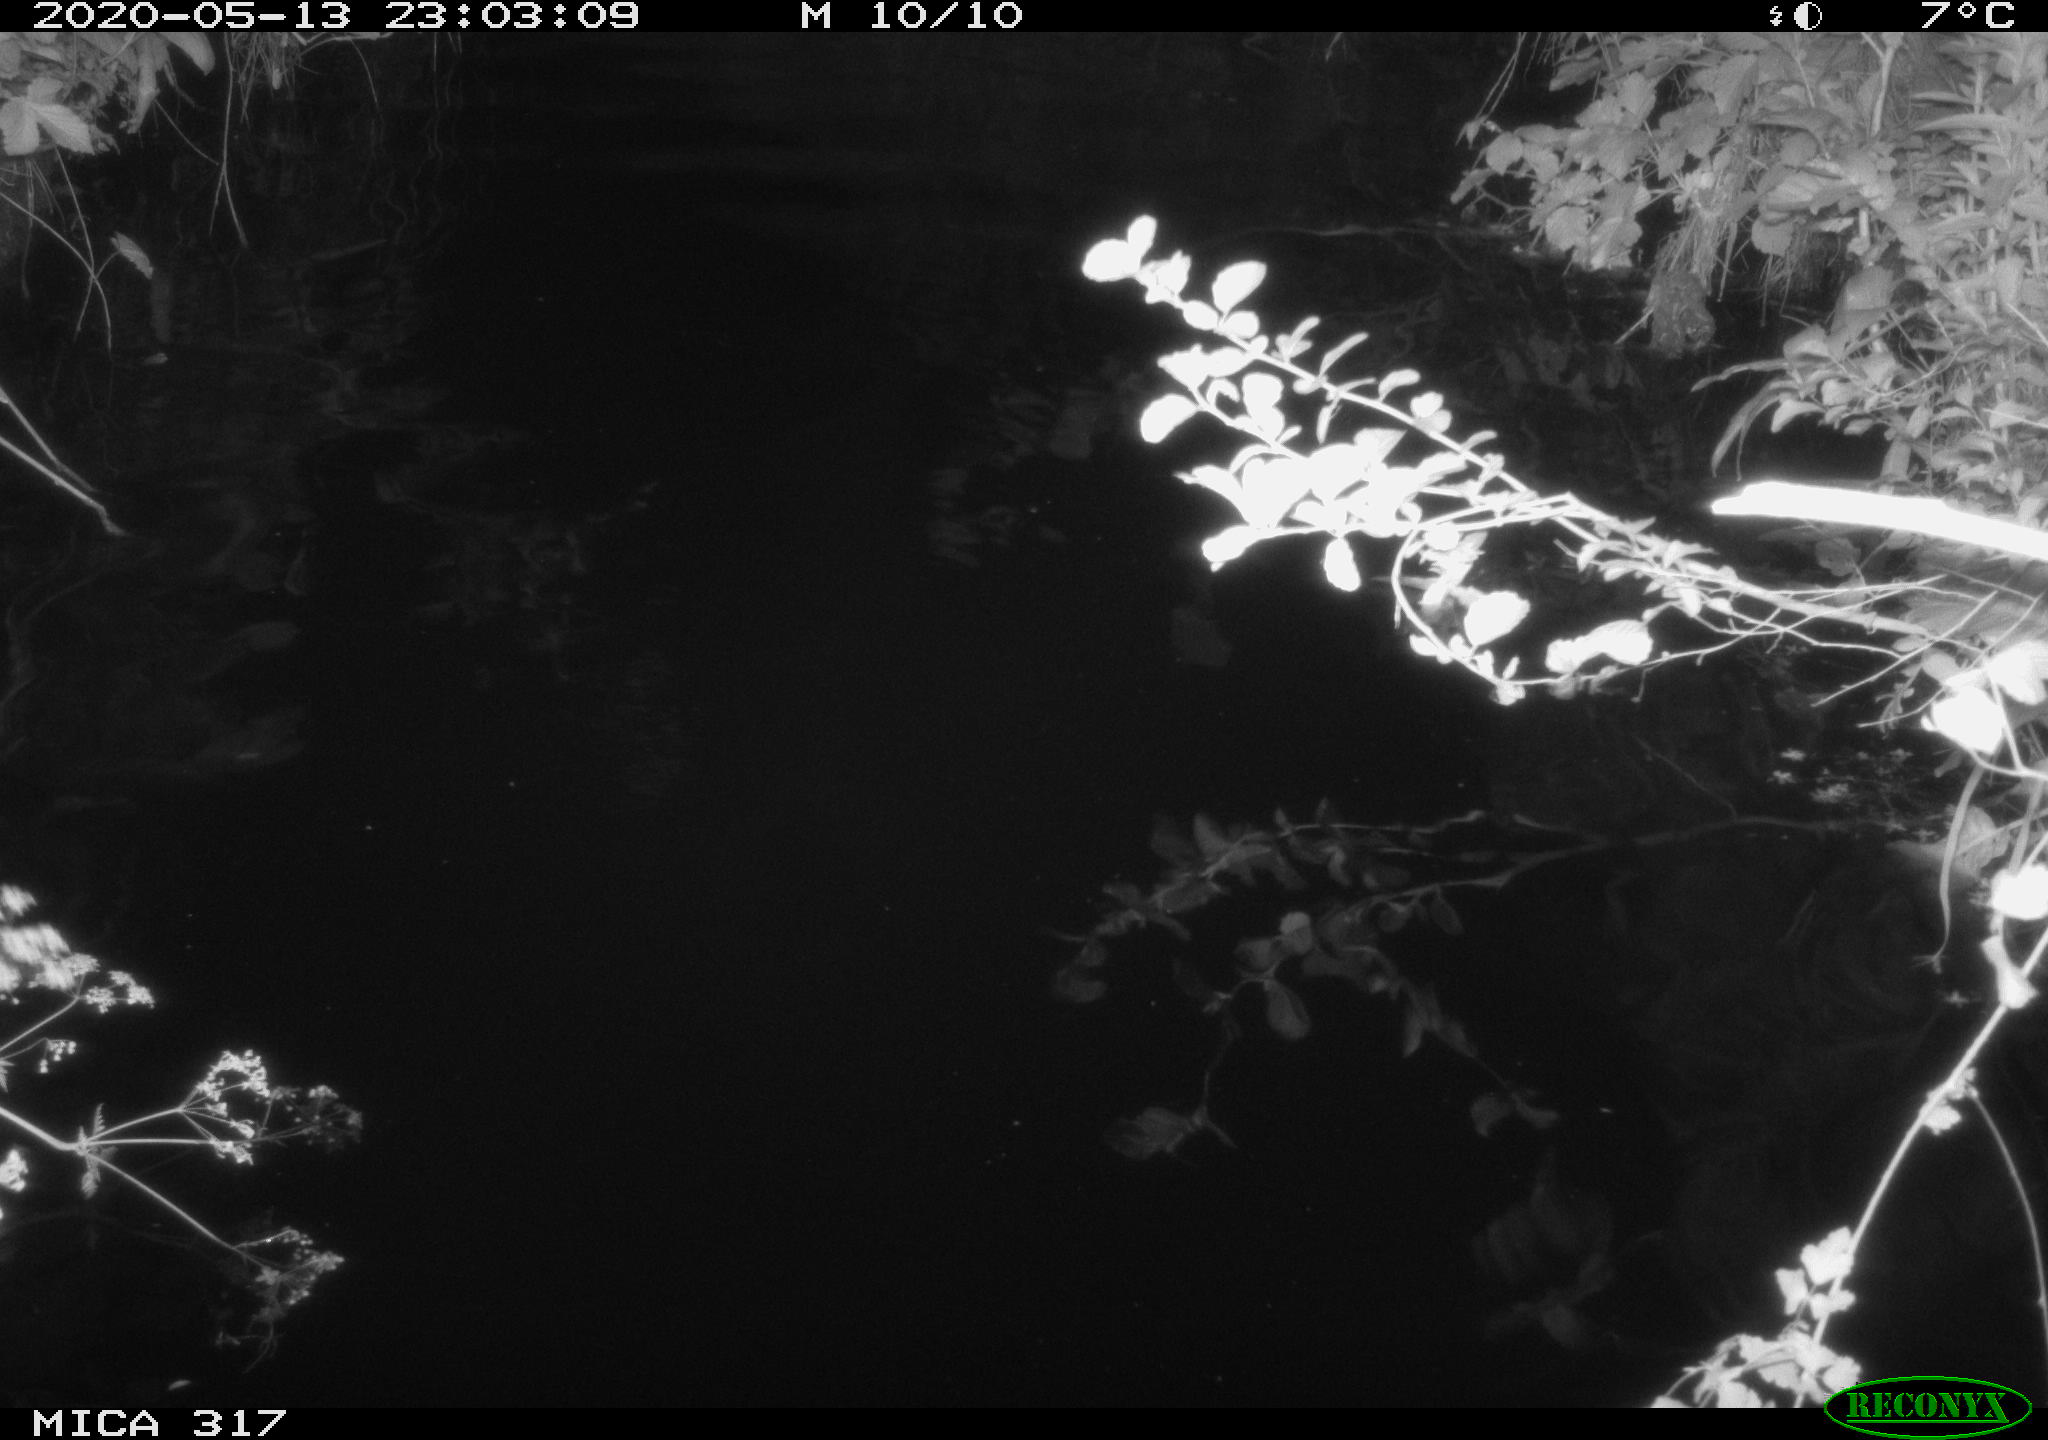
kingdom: Animalia
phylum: Chordata
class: Aves
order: Anseriformes
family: Anatidae
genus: Anas
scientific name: Anas platyrhynchos
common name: Mallard
